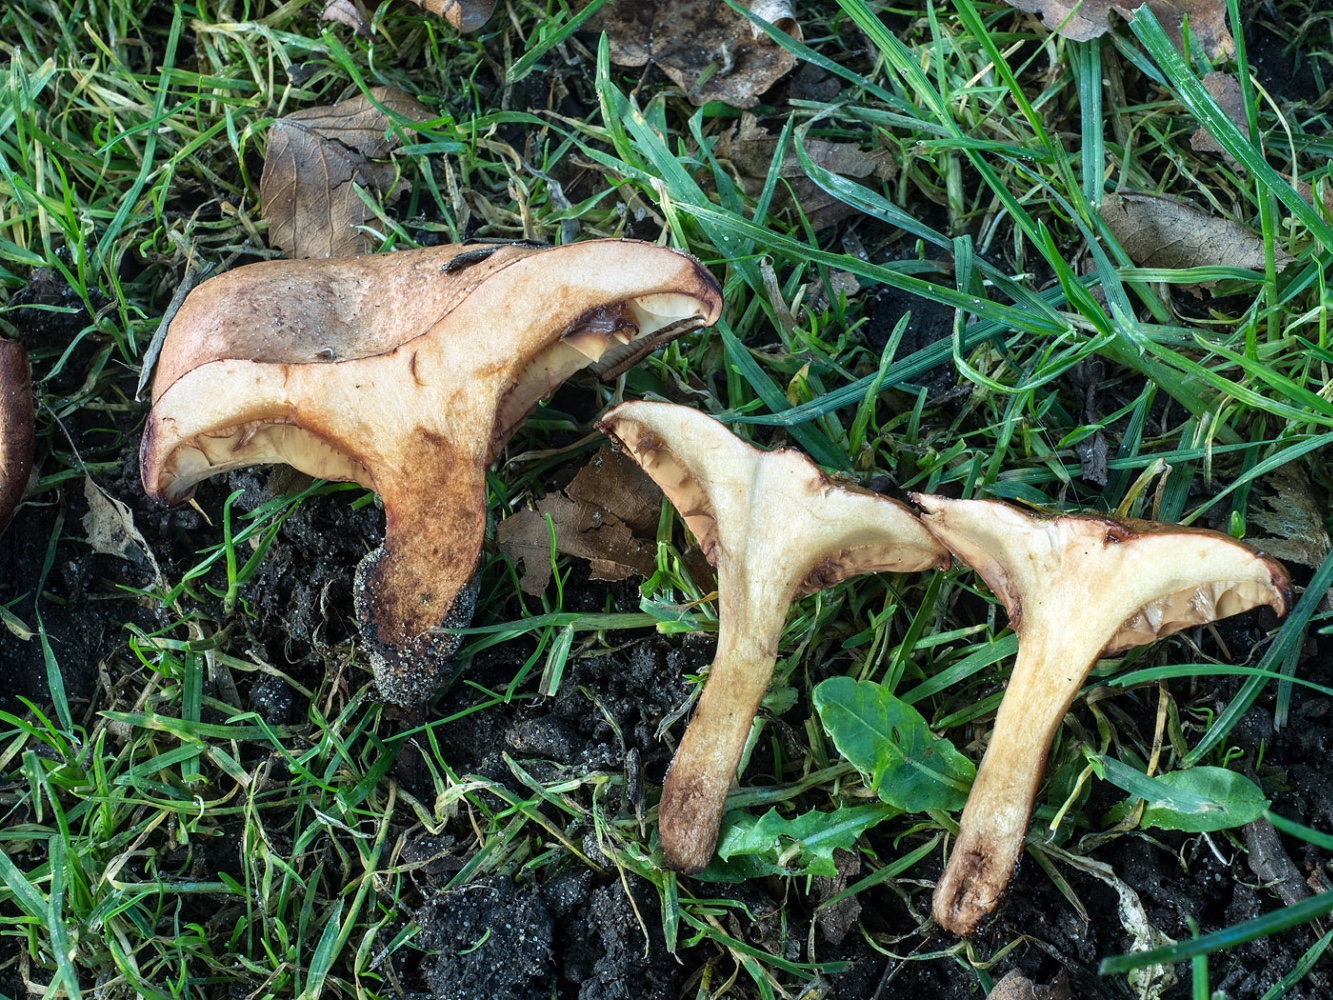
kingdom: Fungi
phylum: Basidiomycota
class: Agaricomycetes
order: Boletales
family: Paxillaceae
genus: Paxillus
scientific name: Paxillus ammoniavirescens
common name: olivensporet netbladhat
